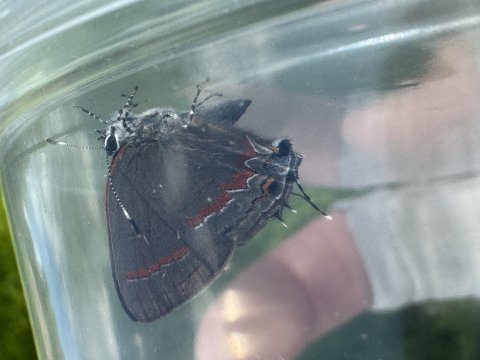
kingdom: Animalia
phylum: Arthropoda
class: Insecta
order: Lepidoptera
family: Lycaenidae
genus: Calycopis
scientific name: Calycopis cecrops
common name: Red-banded Hairstreak
